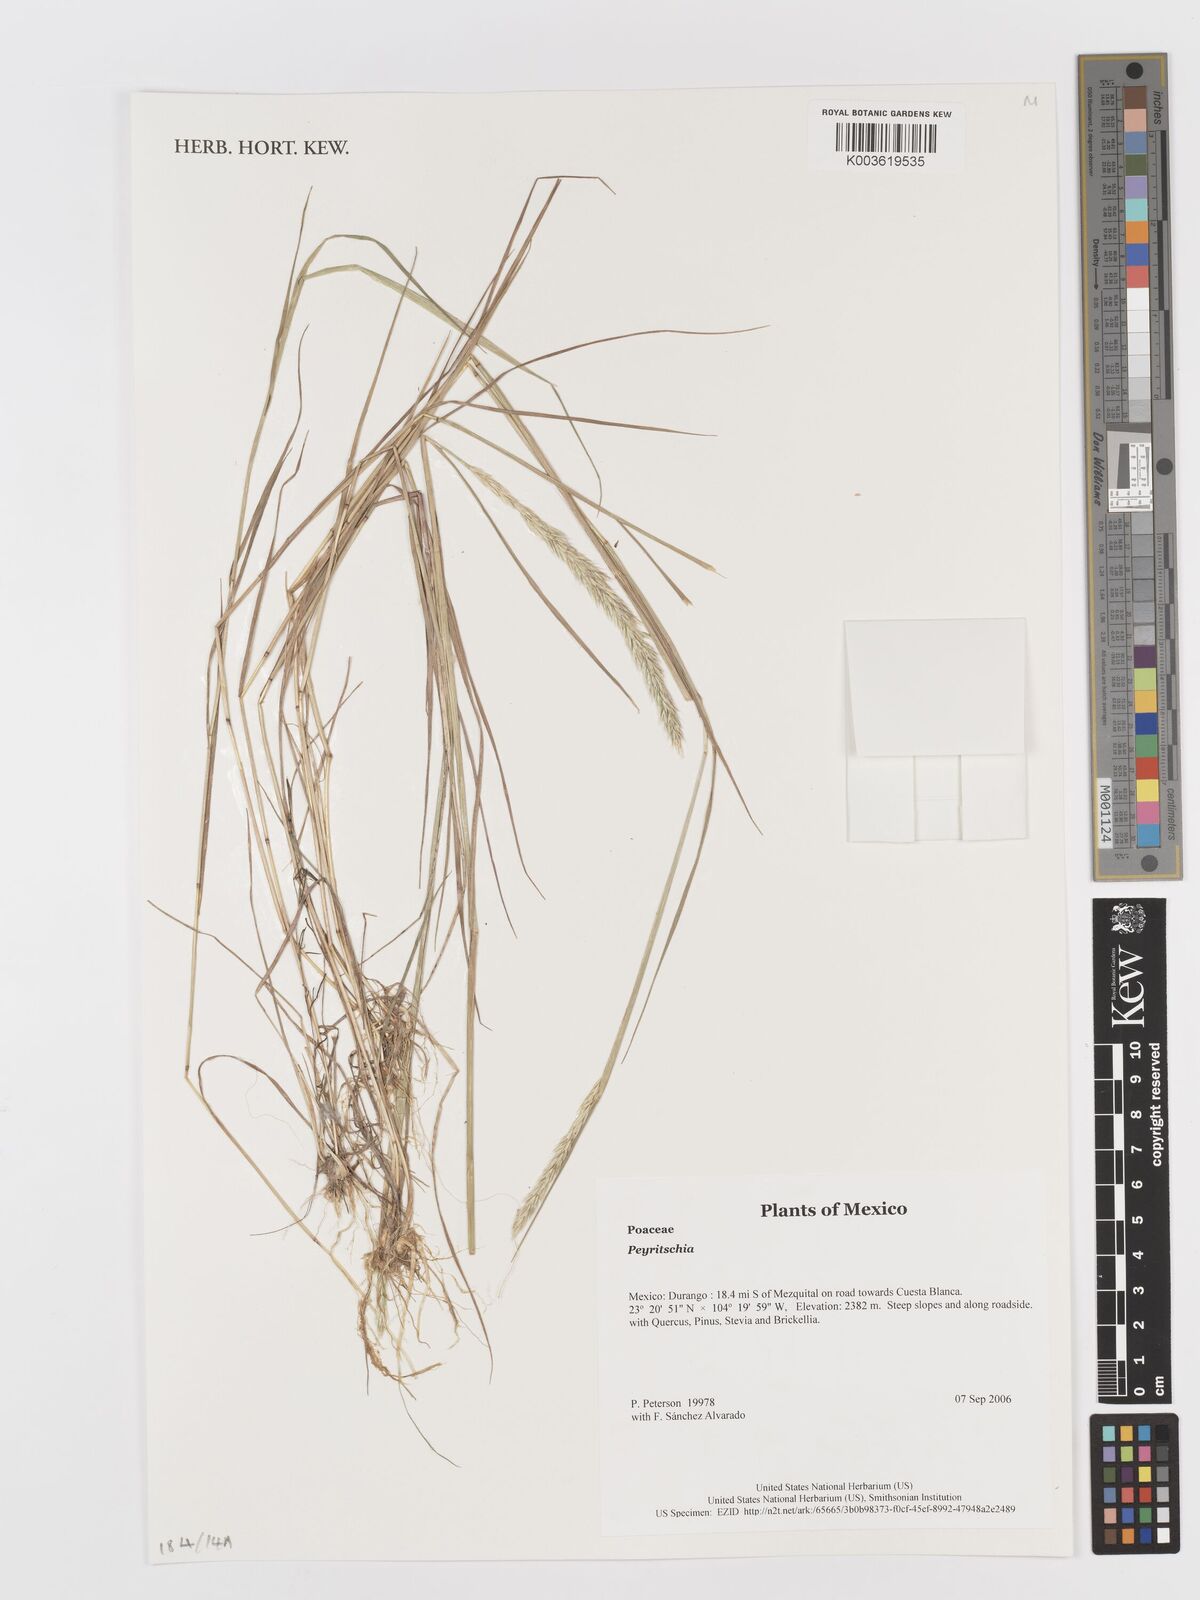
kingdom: Plantae
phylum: Tracheophyta
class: Liliopsida
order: Poales
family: Poaceae
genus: Peyritschia
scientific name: Peyritschia
